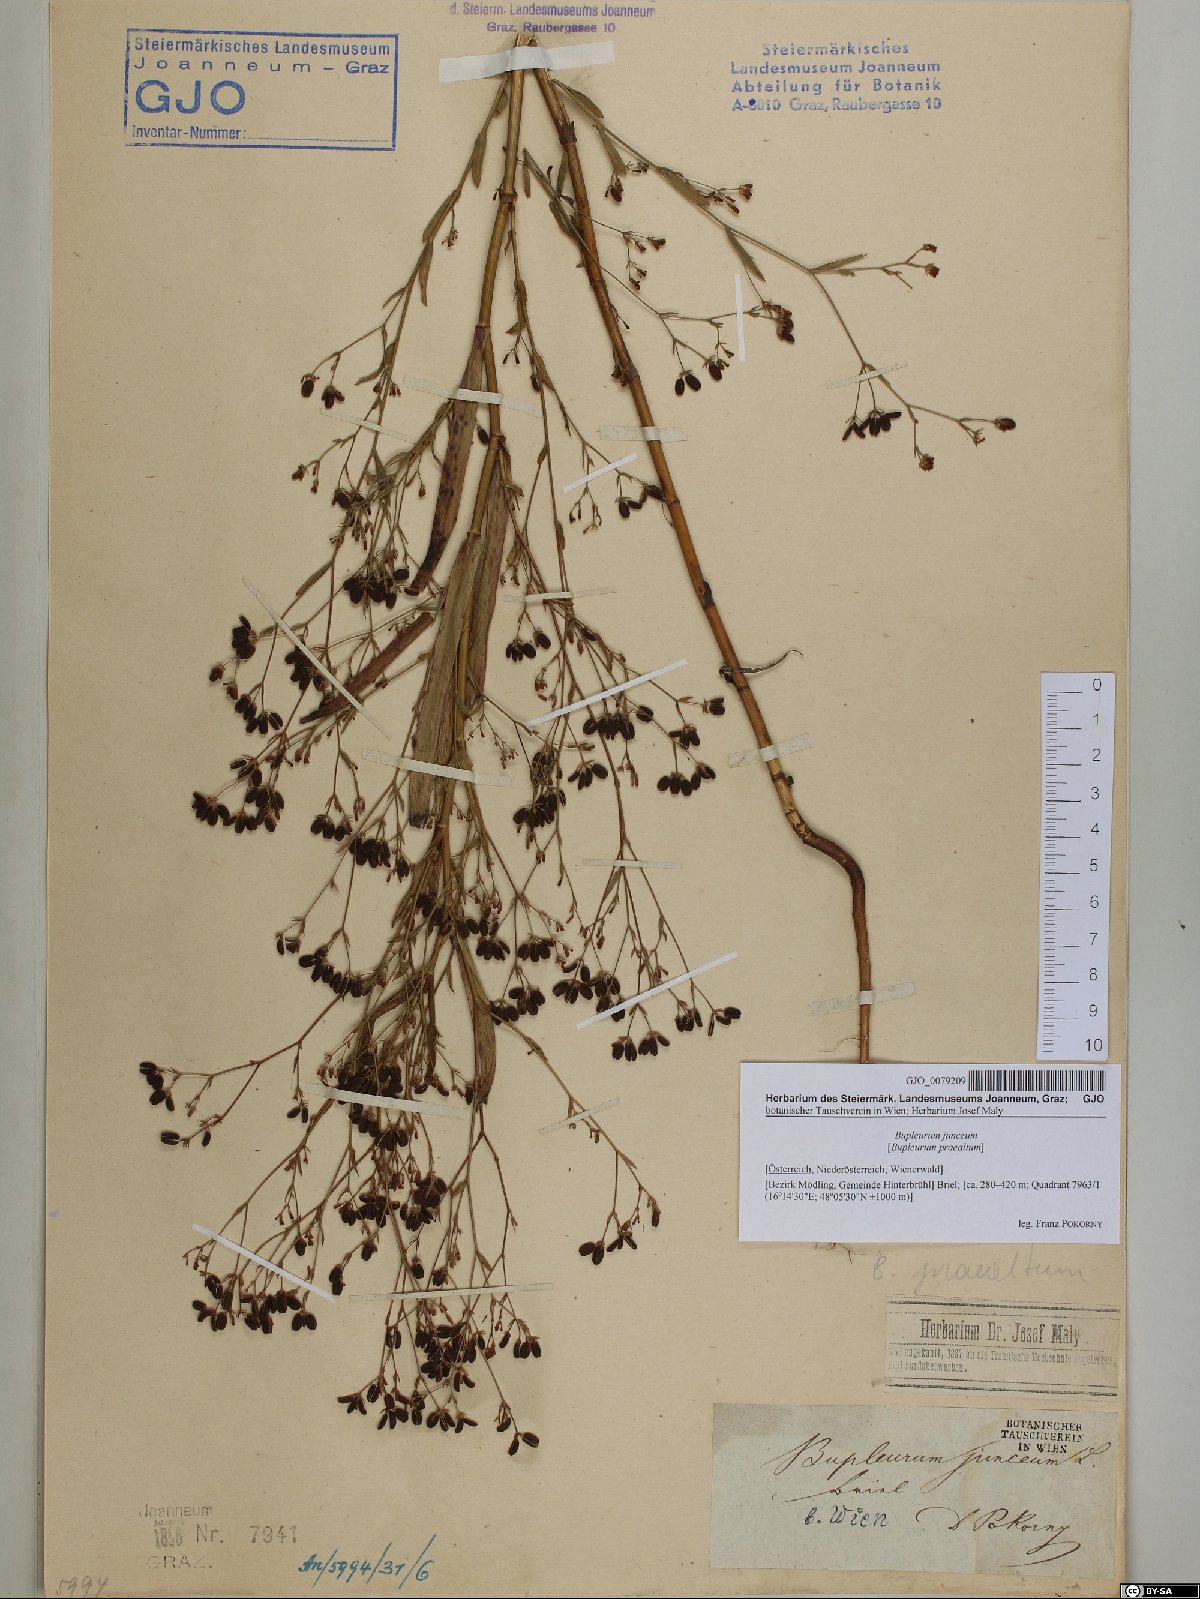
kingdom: Plantae
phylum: Tracheophyta
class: Magnoliopsida
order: Apiales
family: Apiaceae
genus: Bupleurum
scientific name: Bupleurum praealtum
